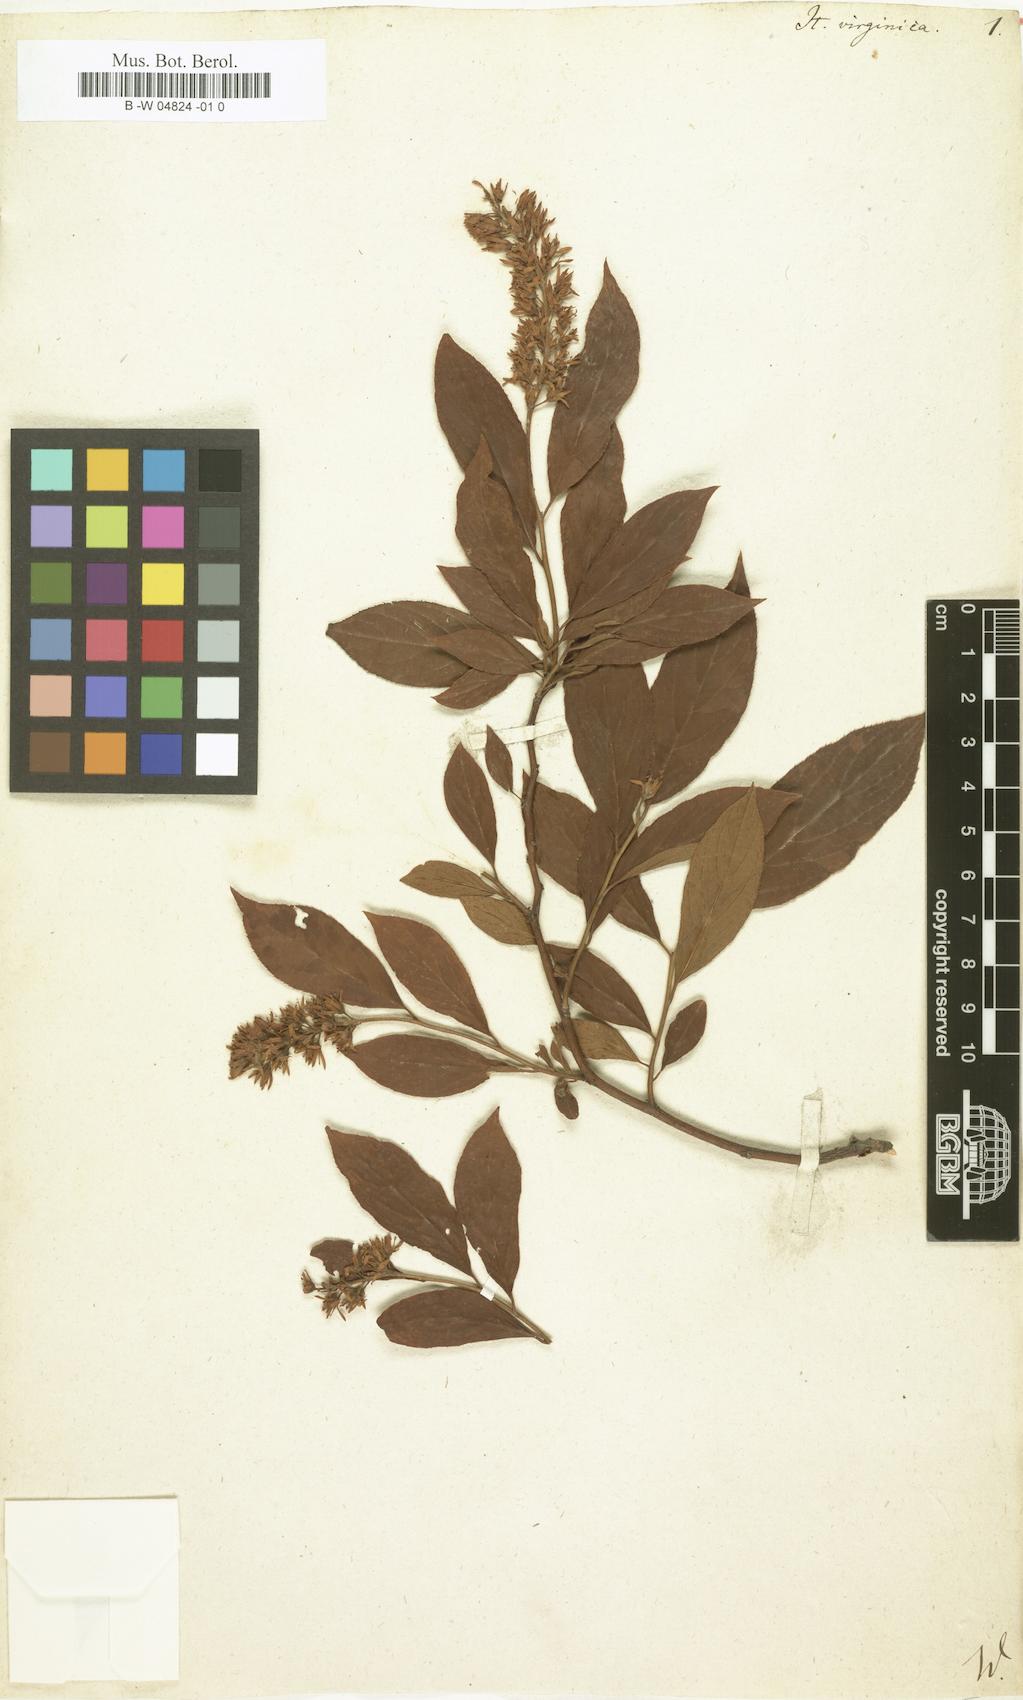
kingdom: Plantae
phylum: Tracheophyta
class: Magnoliopsida
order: Saxifragales
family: Iteaceae
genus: Itea
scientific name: Itea virginica
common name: Sweetspire
